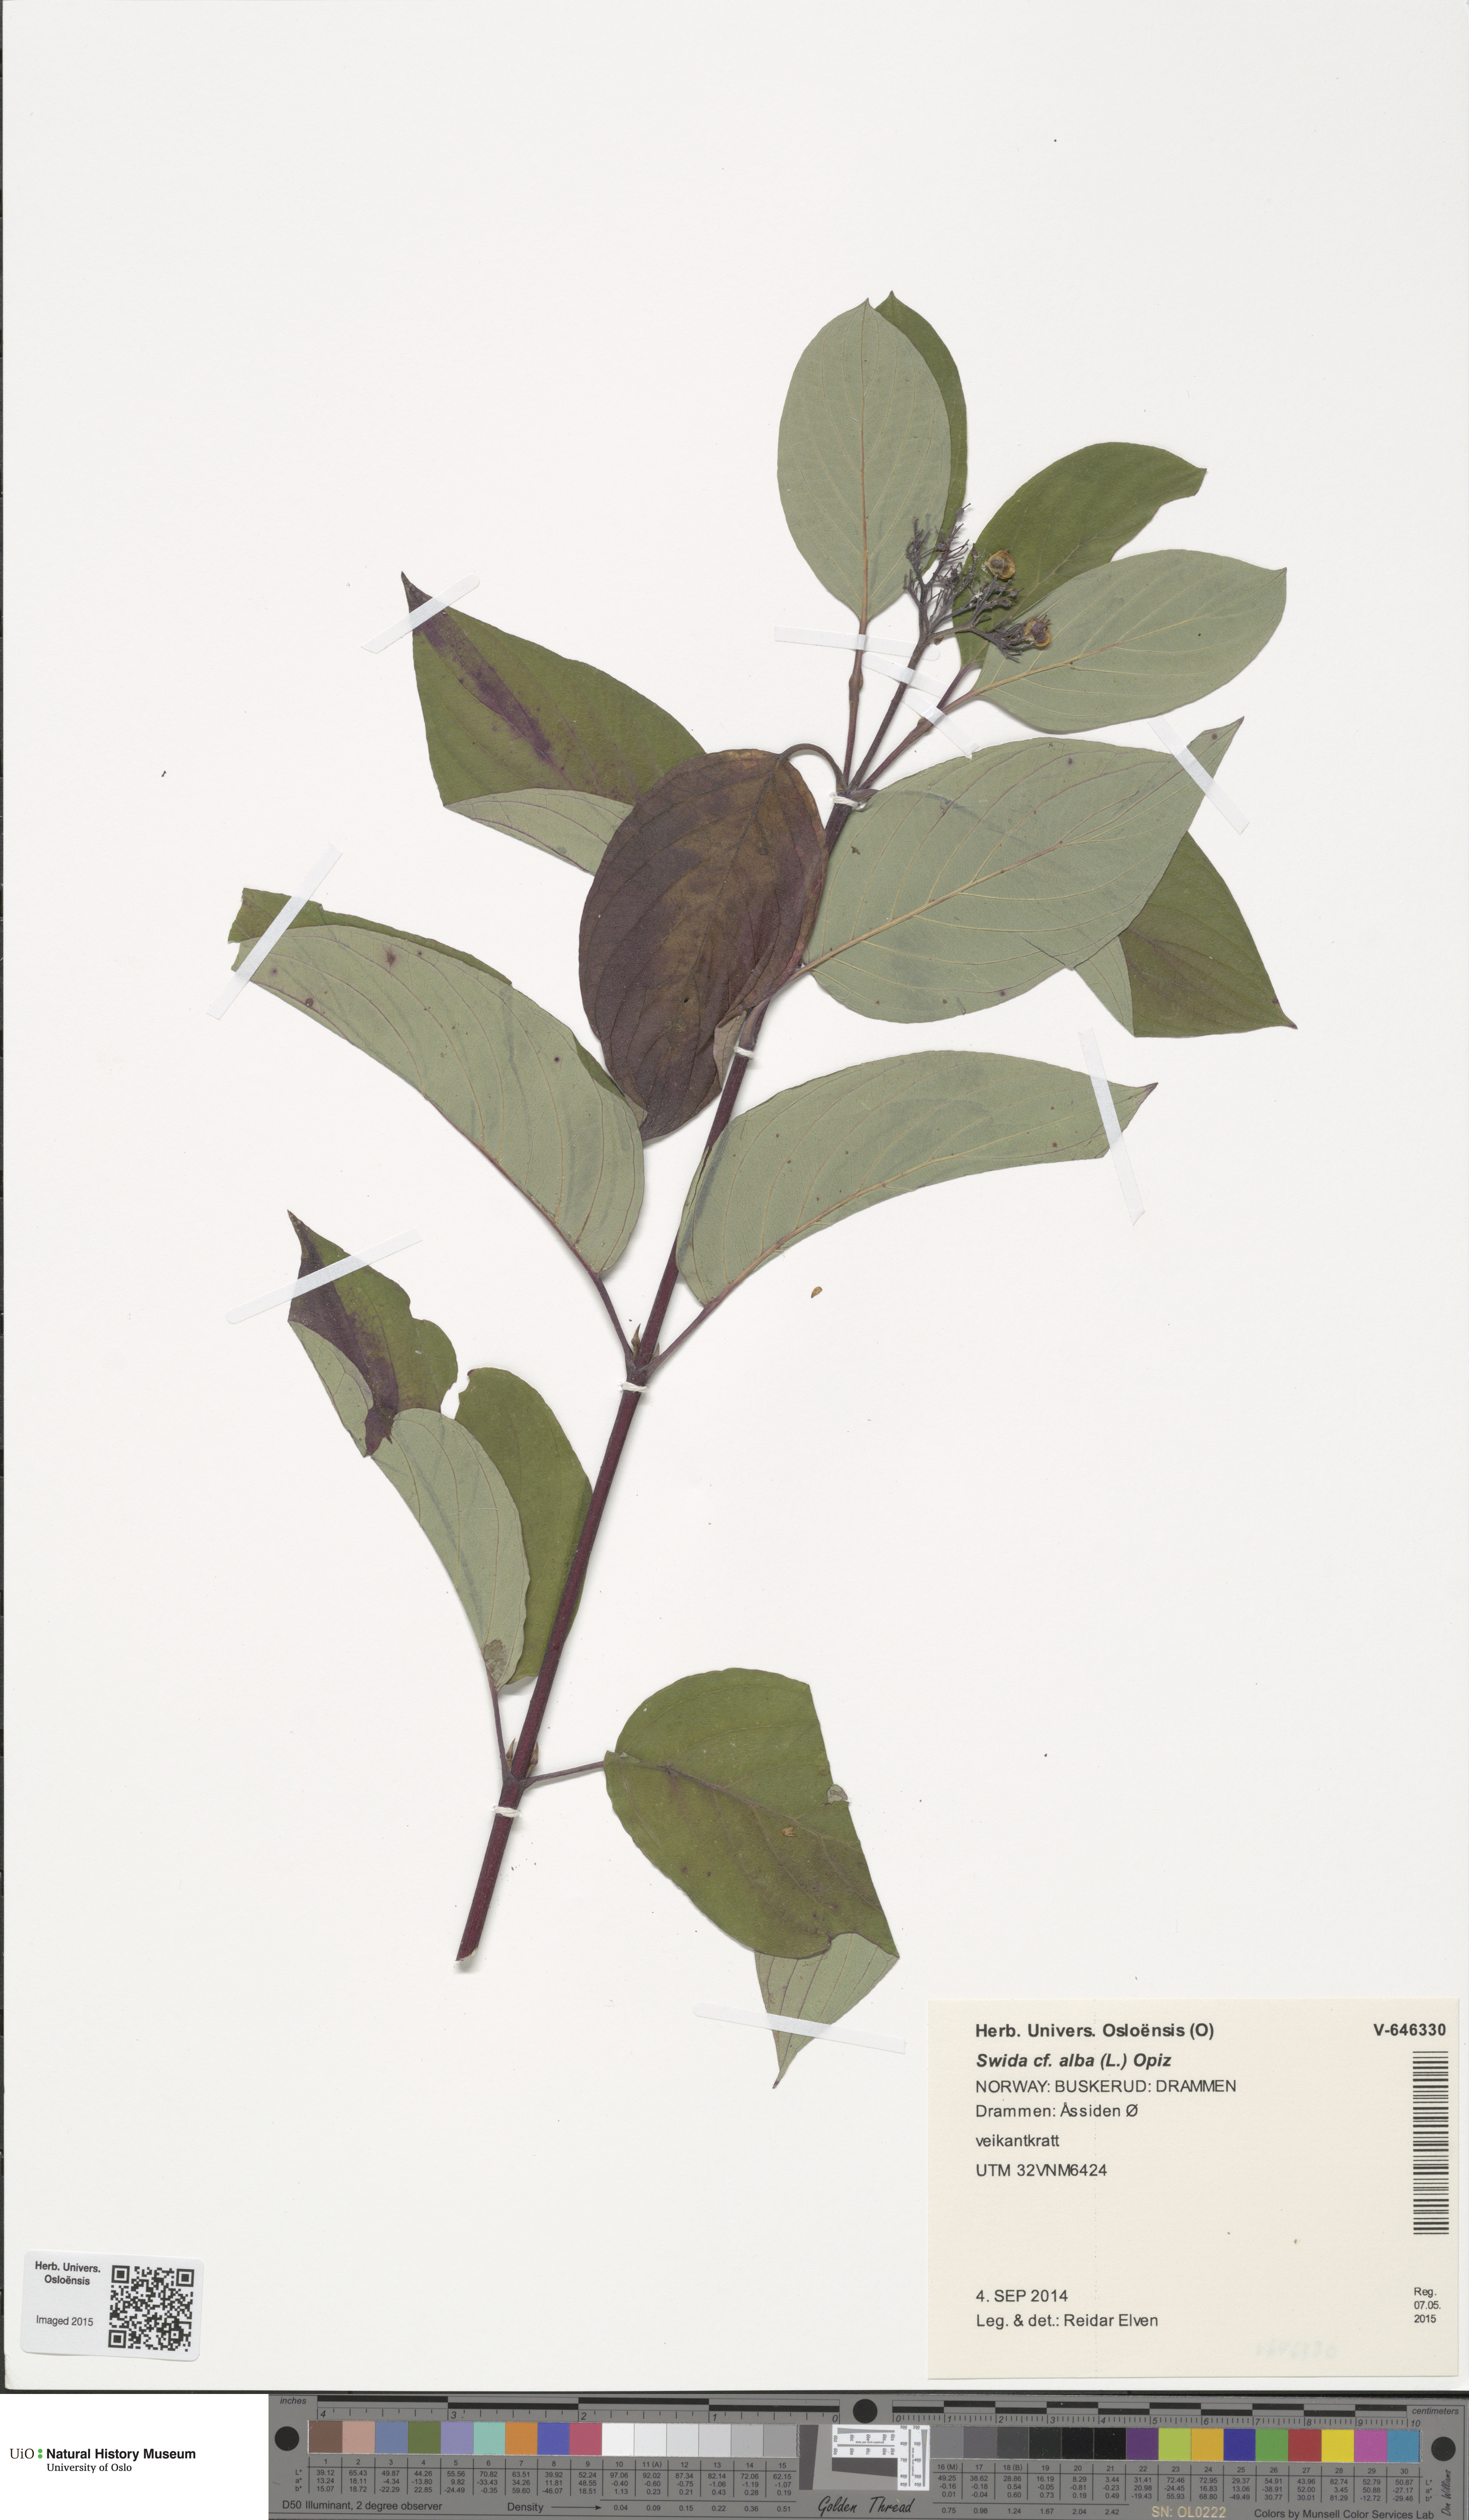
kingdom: Plantae
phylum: Tracheophyta
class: Magnoliopsida
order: Cornales
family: Cornaceae
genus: Cornus
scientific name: Cornus alba
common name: White dogwood
